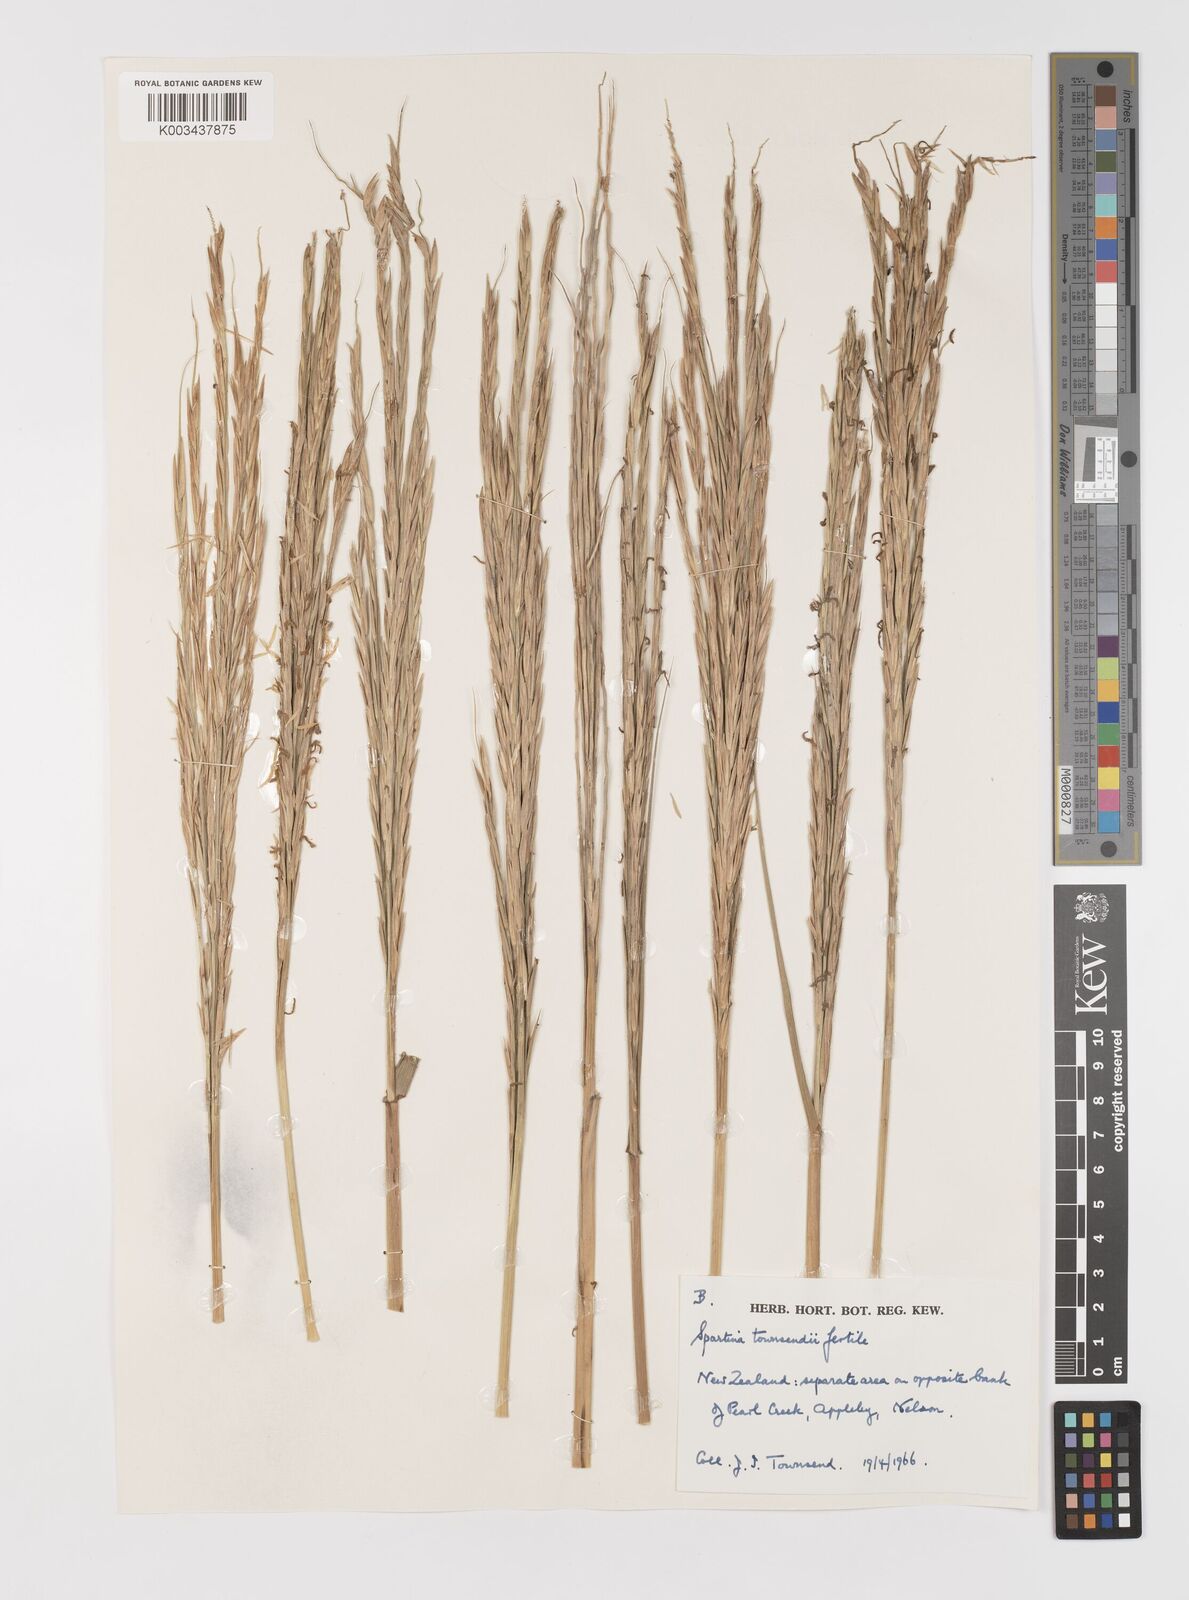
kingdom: Plantae
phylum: Tracheophyta
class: Liliopsida
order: Poales
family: Poaceae
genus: Sporobolus
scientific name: Sporobolus townsendii
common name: Townsend's cordgrass
